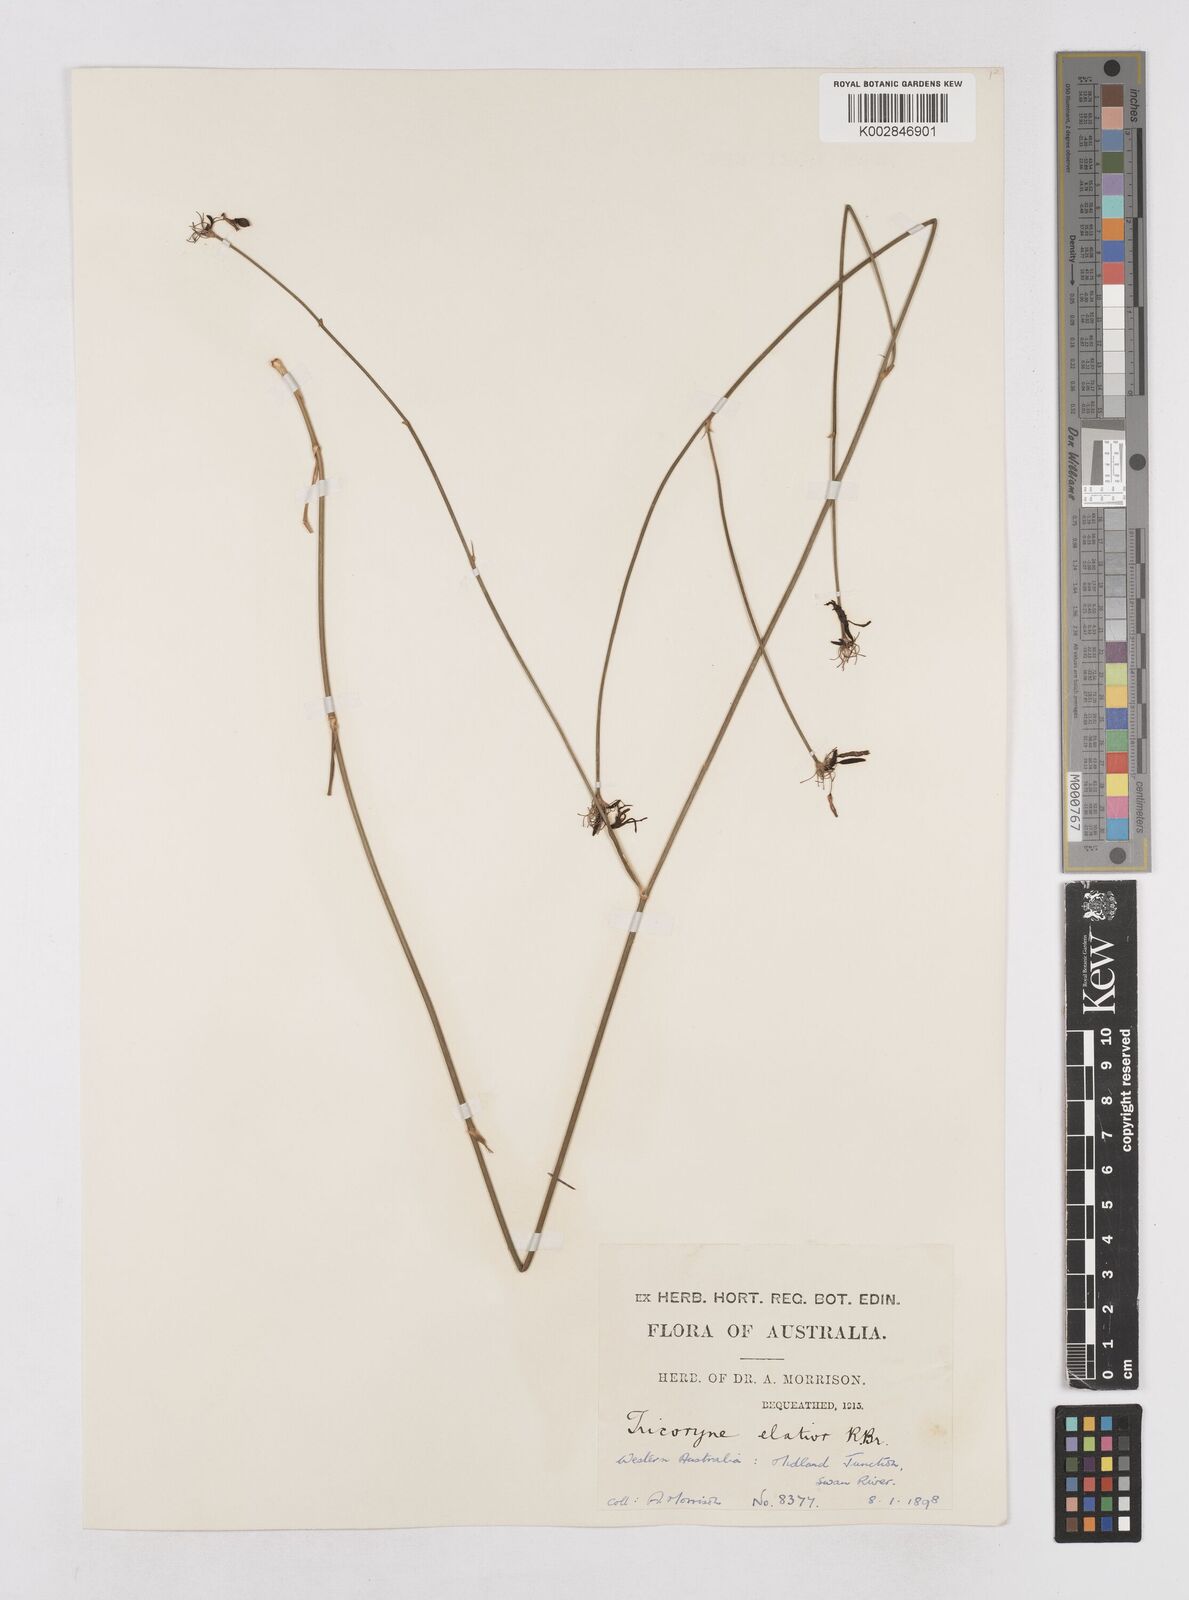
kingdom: Plantae
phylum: Tracheophyta
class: Liliopsida
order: Asparagales
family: Asphodelaceae
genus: Tricoryne
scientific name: Tricoryne elatior
